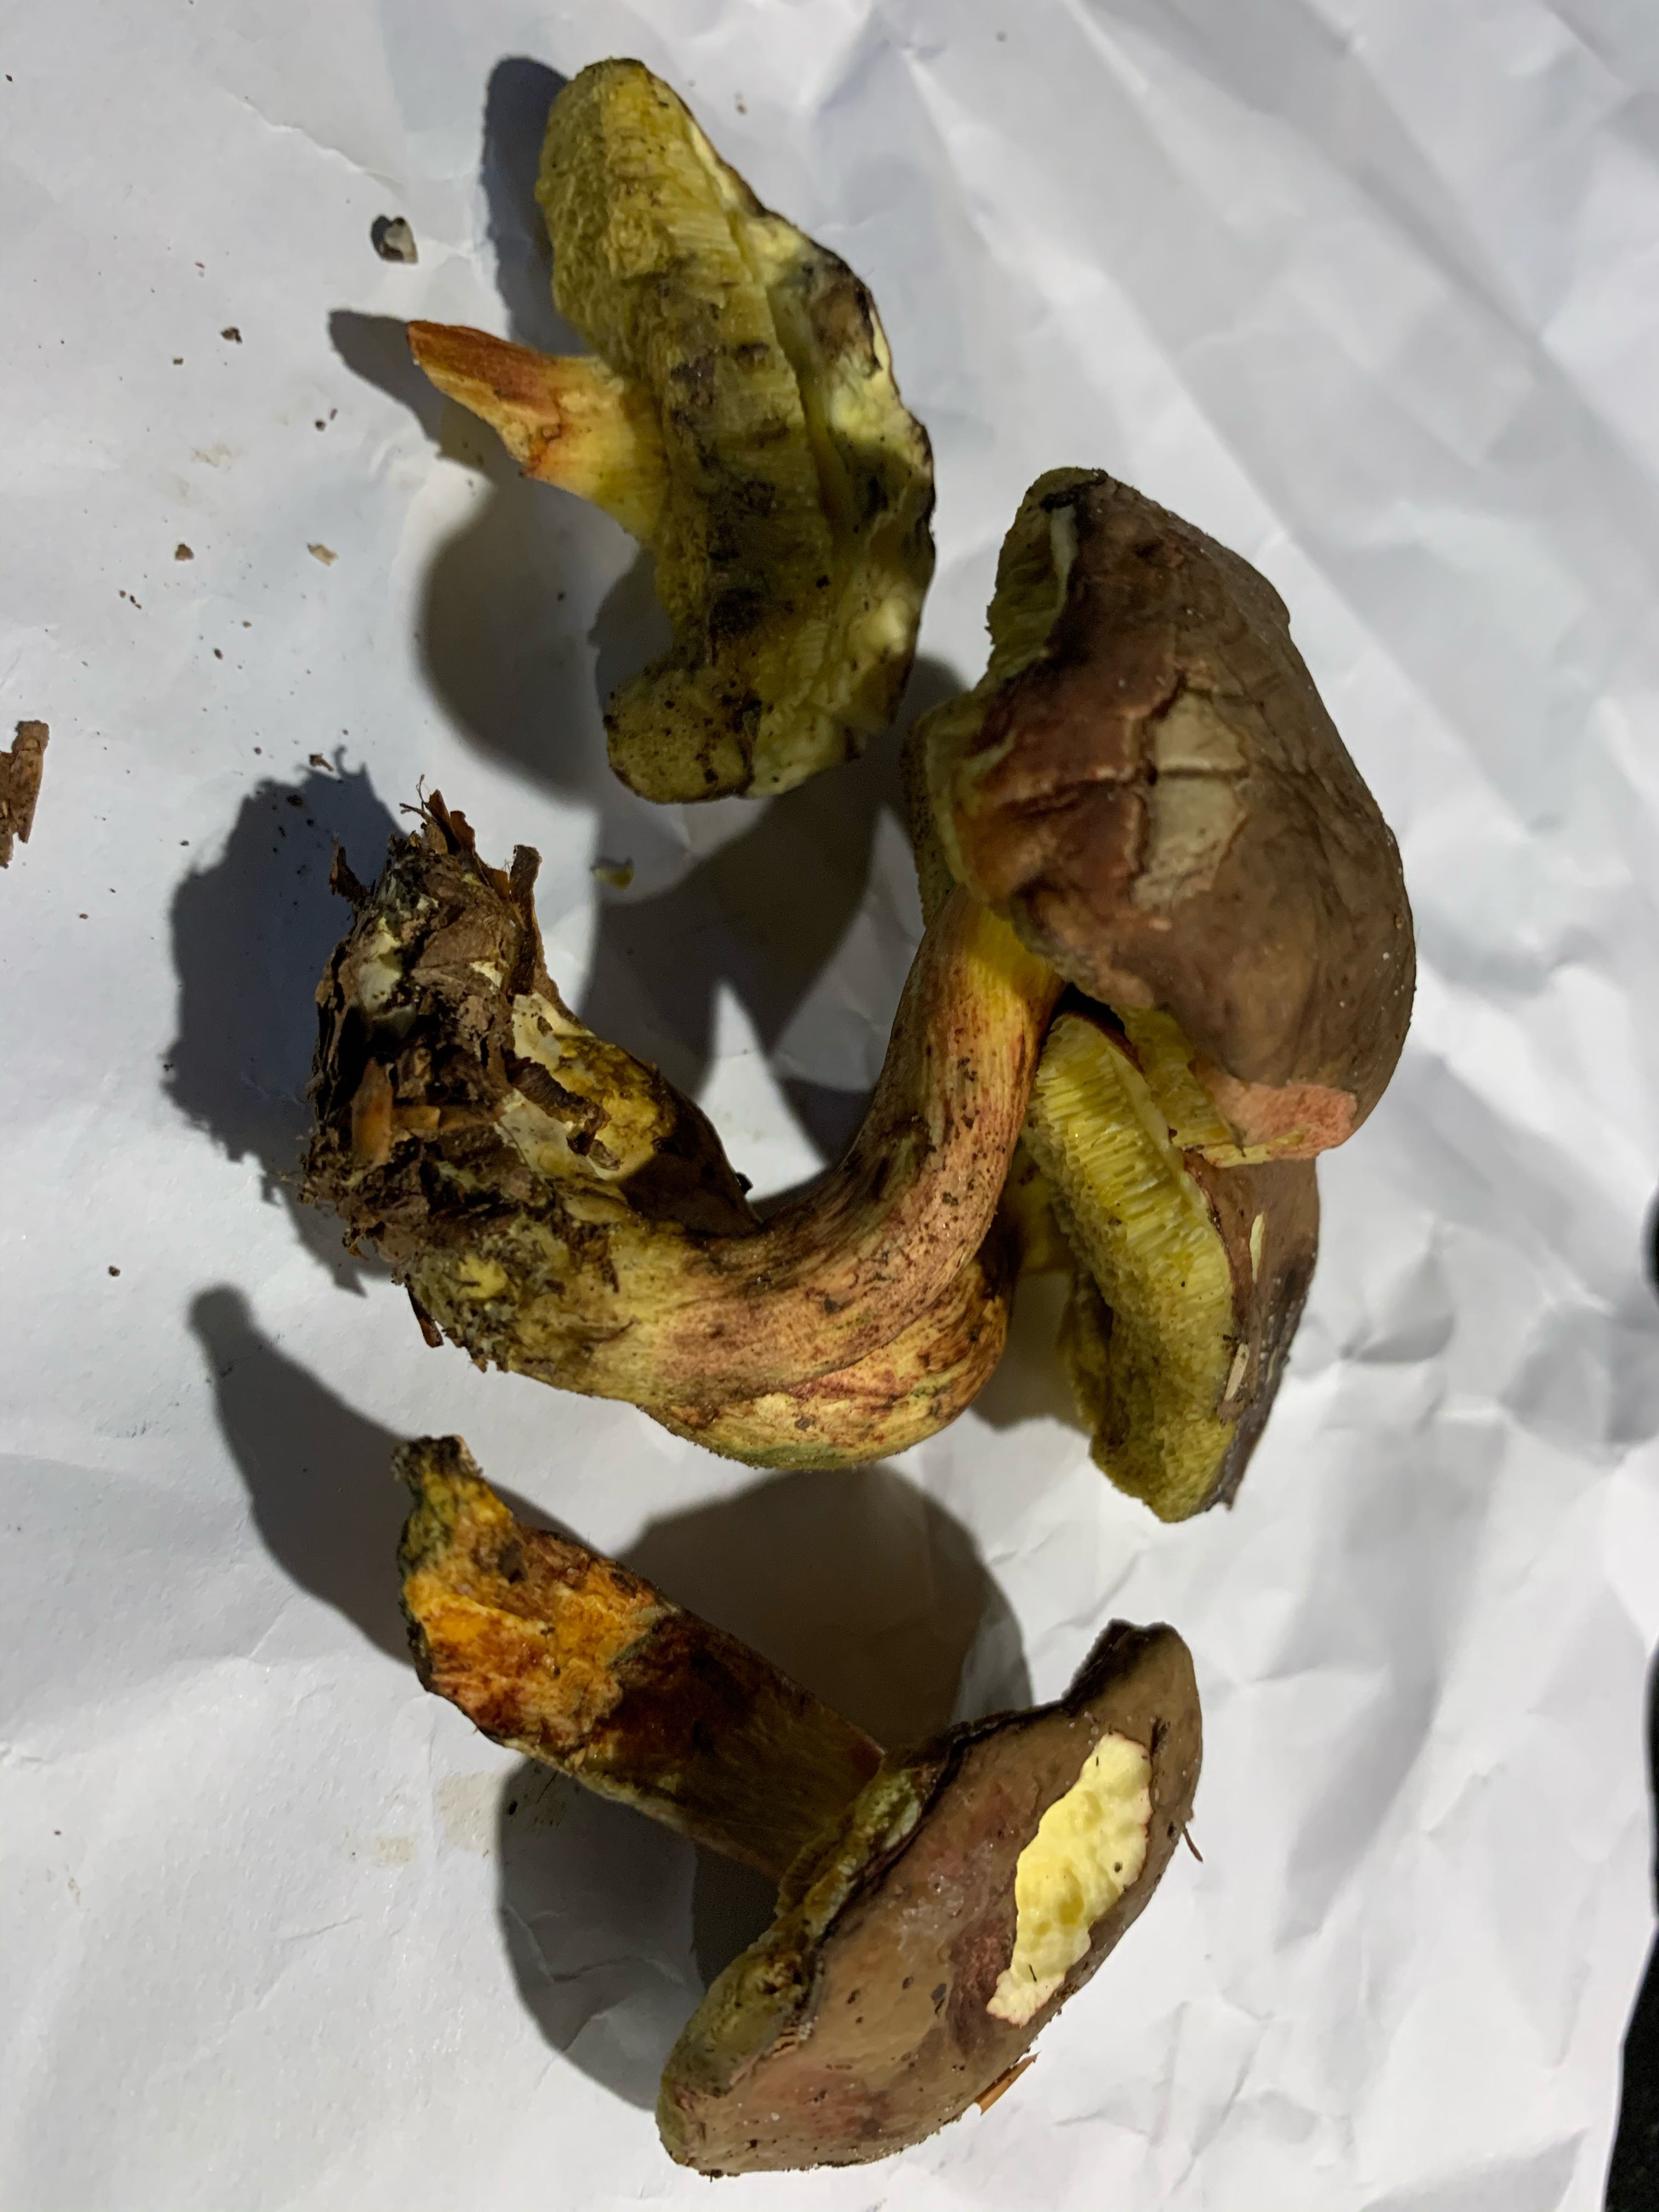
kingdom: Fungi
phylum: Basidiomycota
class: Agaricomycetes
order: Boletales
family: Boletaceae
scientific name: Boletaceae
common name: rørhatfamilien
